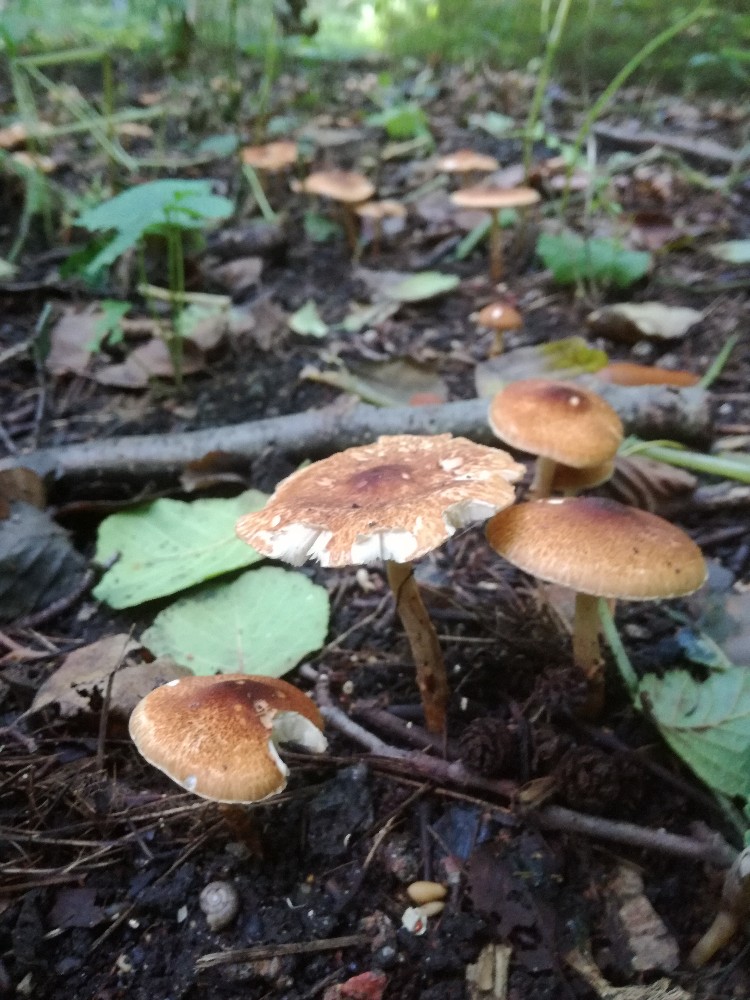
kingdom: Fungi
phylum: Basidiomycota
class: Agaricomycetes
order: Agaricales
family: Agaricaceae
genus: Leucocoprinus
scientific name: Leucocoprinus straminellus
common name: rustbrun parasolhat
